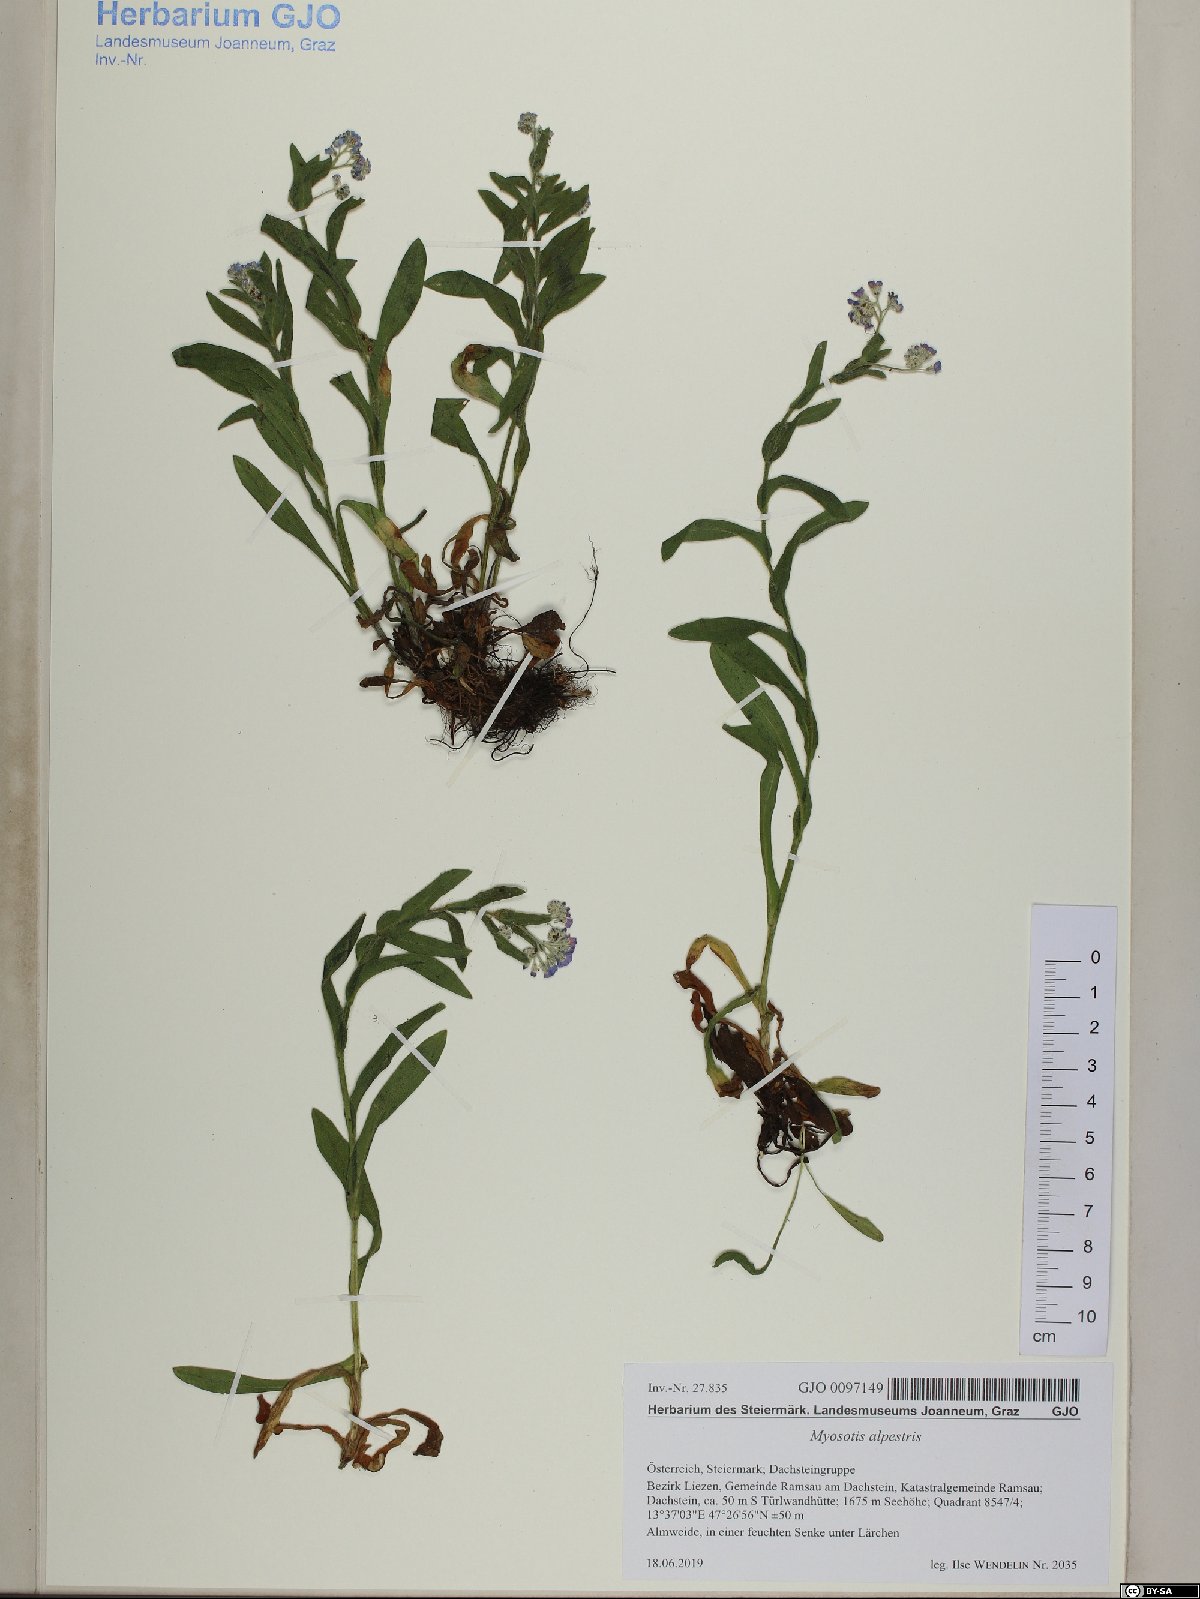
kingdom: Plantae
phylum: Tracheophyta
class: Magnoliopsida
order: Boraginales
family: Boraginaceae
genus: Myosotis
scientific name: Myosotis alpestris
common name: Alpine forget-me-not
